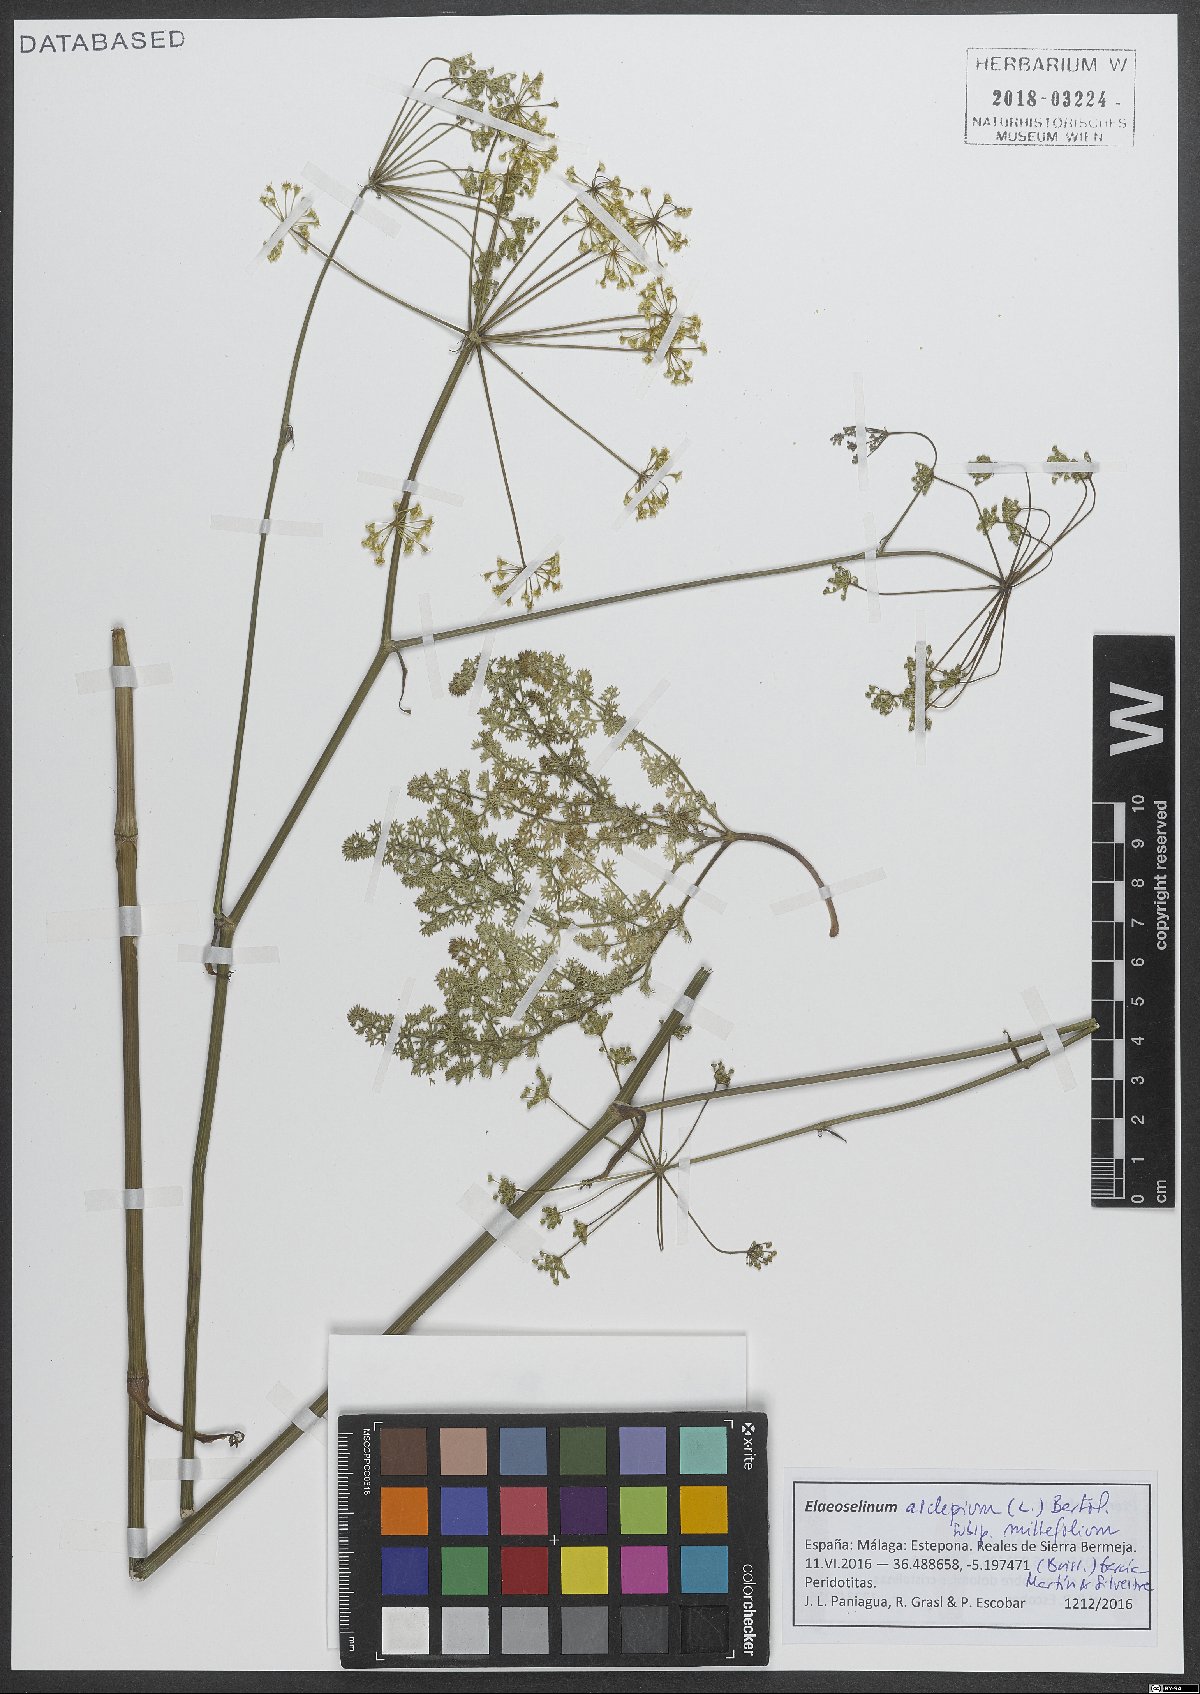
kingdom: Plantae
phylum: Tracheophyta
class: Magnoliopsida
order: Apiales
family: Apiaceae
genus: Thapsia
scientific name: Thapsia asclepium
